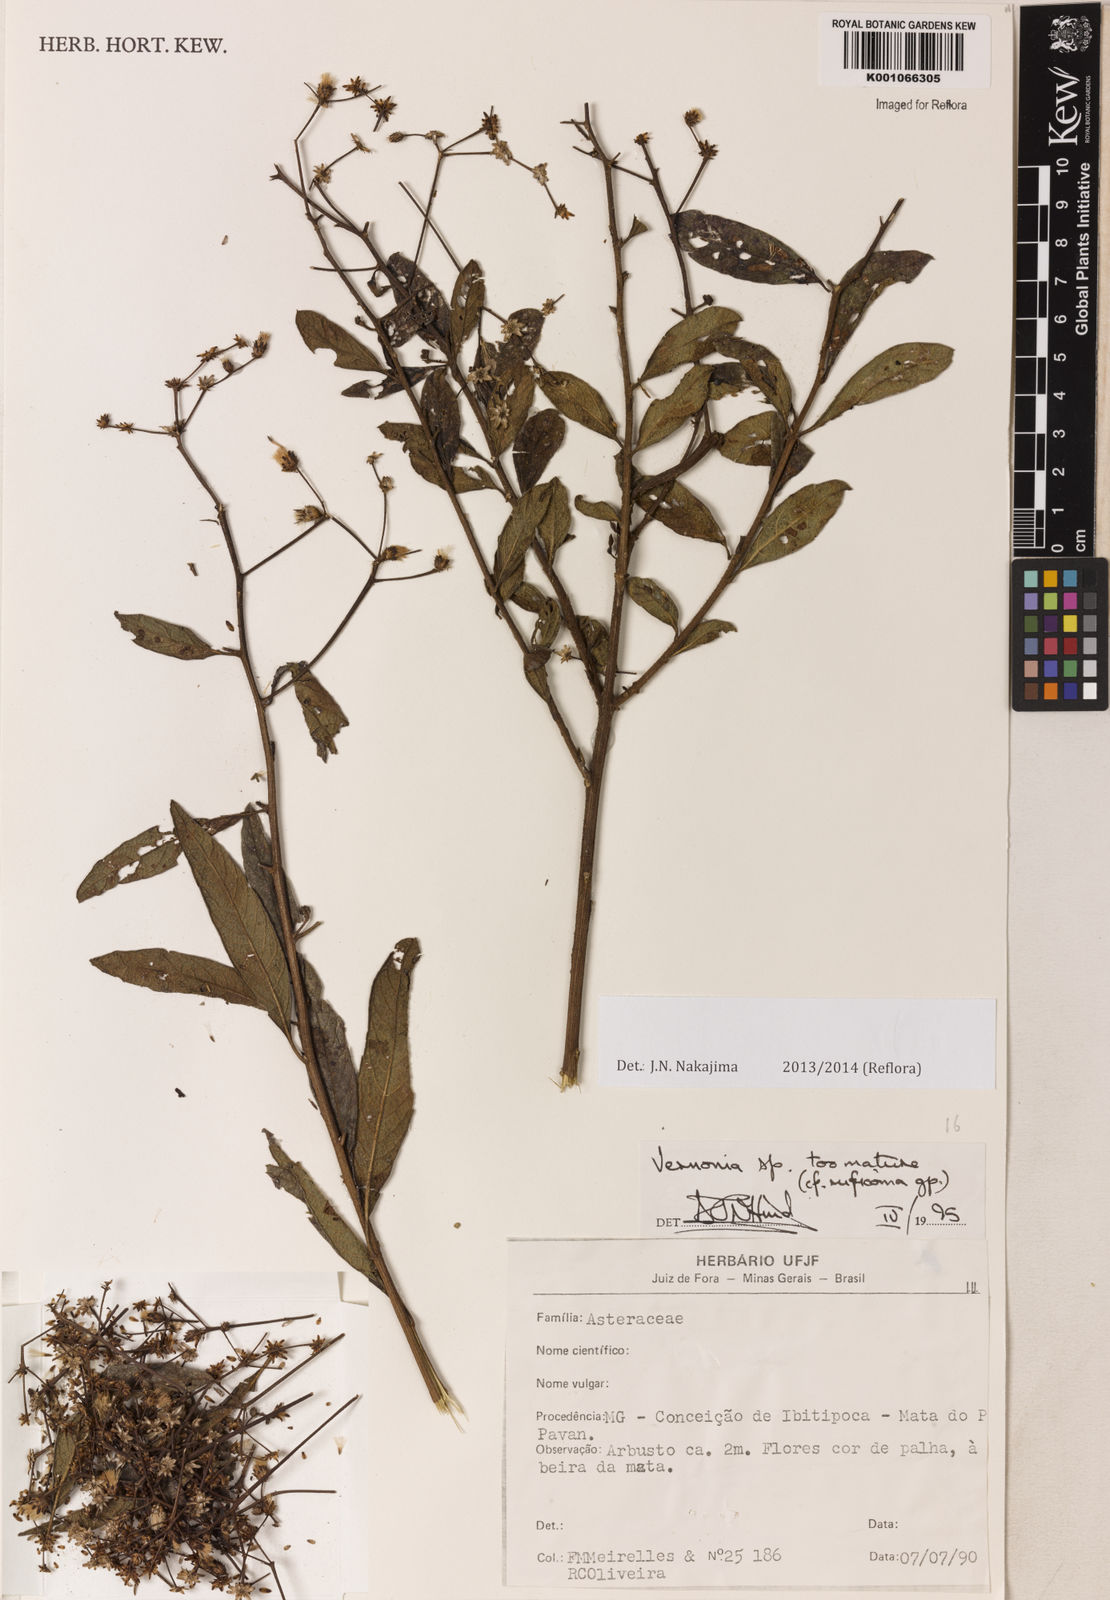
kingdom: Plantae
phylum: Tracheophyta
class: Magnoliopsida
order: Asterales
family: Asteraceae
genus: Vernonanthura
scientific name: Vernonanthura polyanthes
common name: Tree aster
